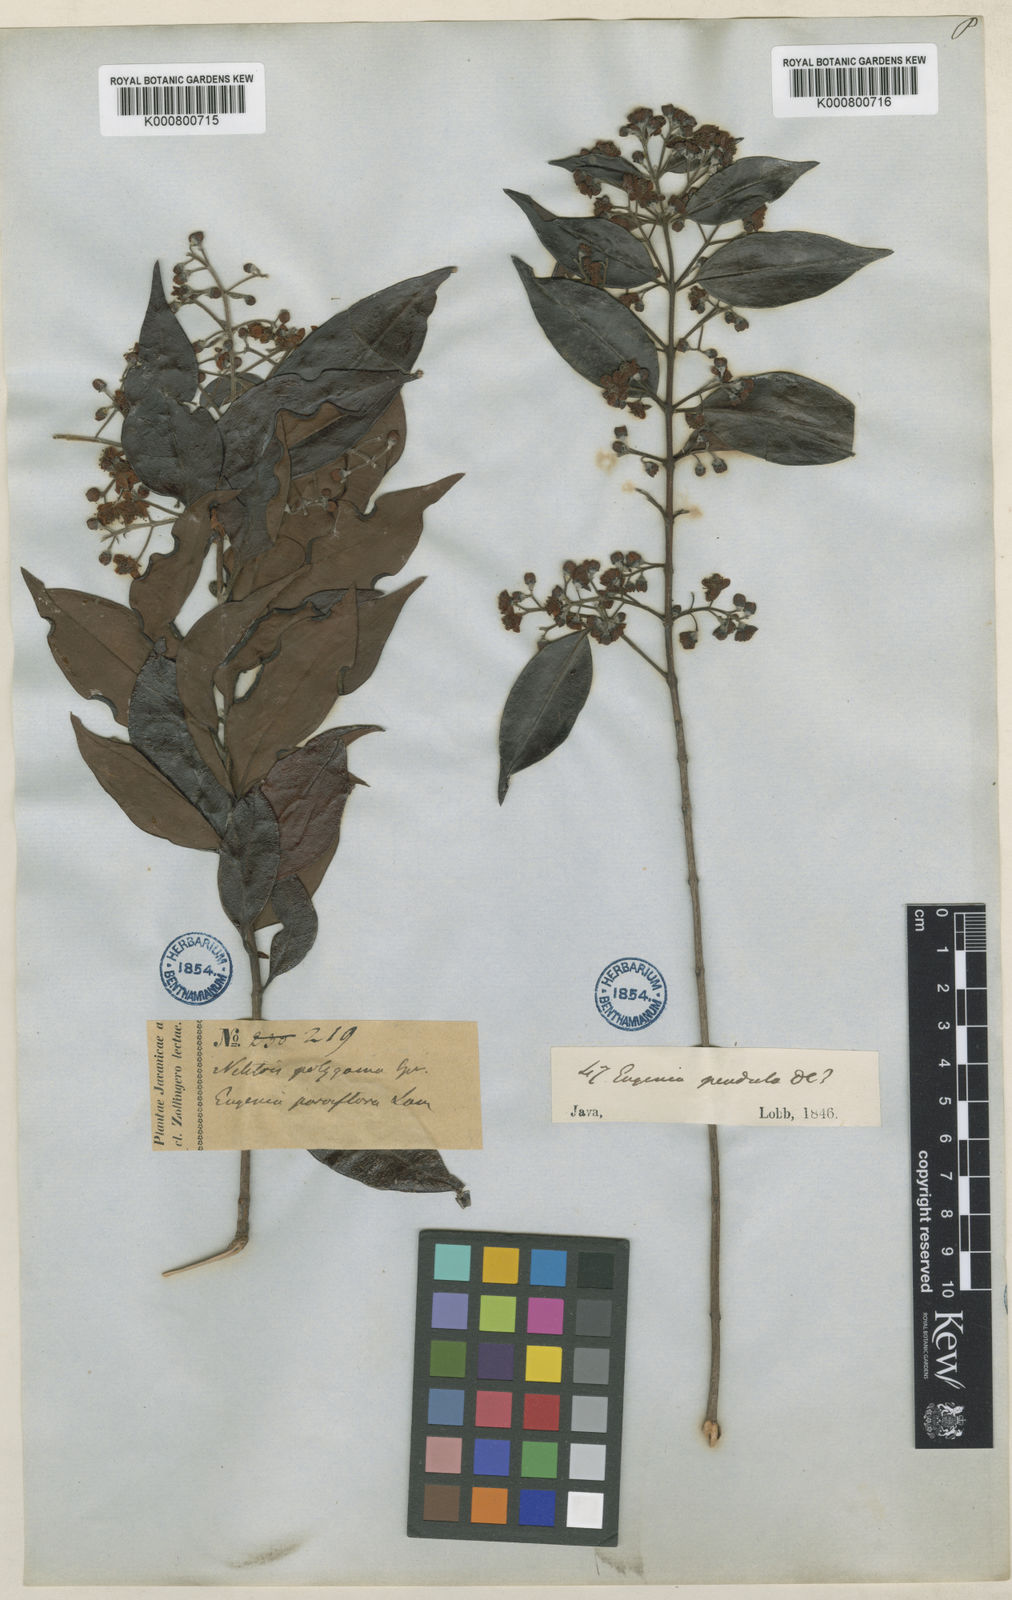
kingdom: Plantae
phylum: Tracheophyta
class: Magnoliopsida
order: Myrtales
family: Myrtaceae
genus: Decaspermum
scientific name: Decaspermum parviflorum
